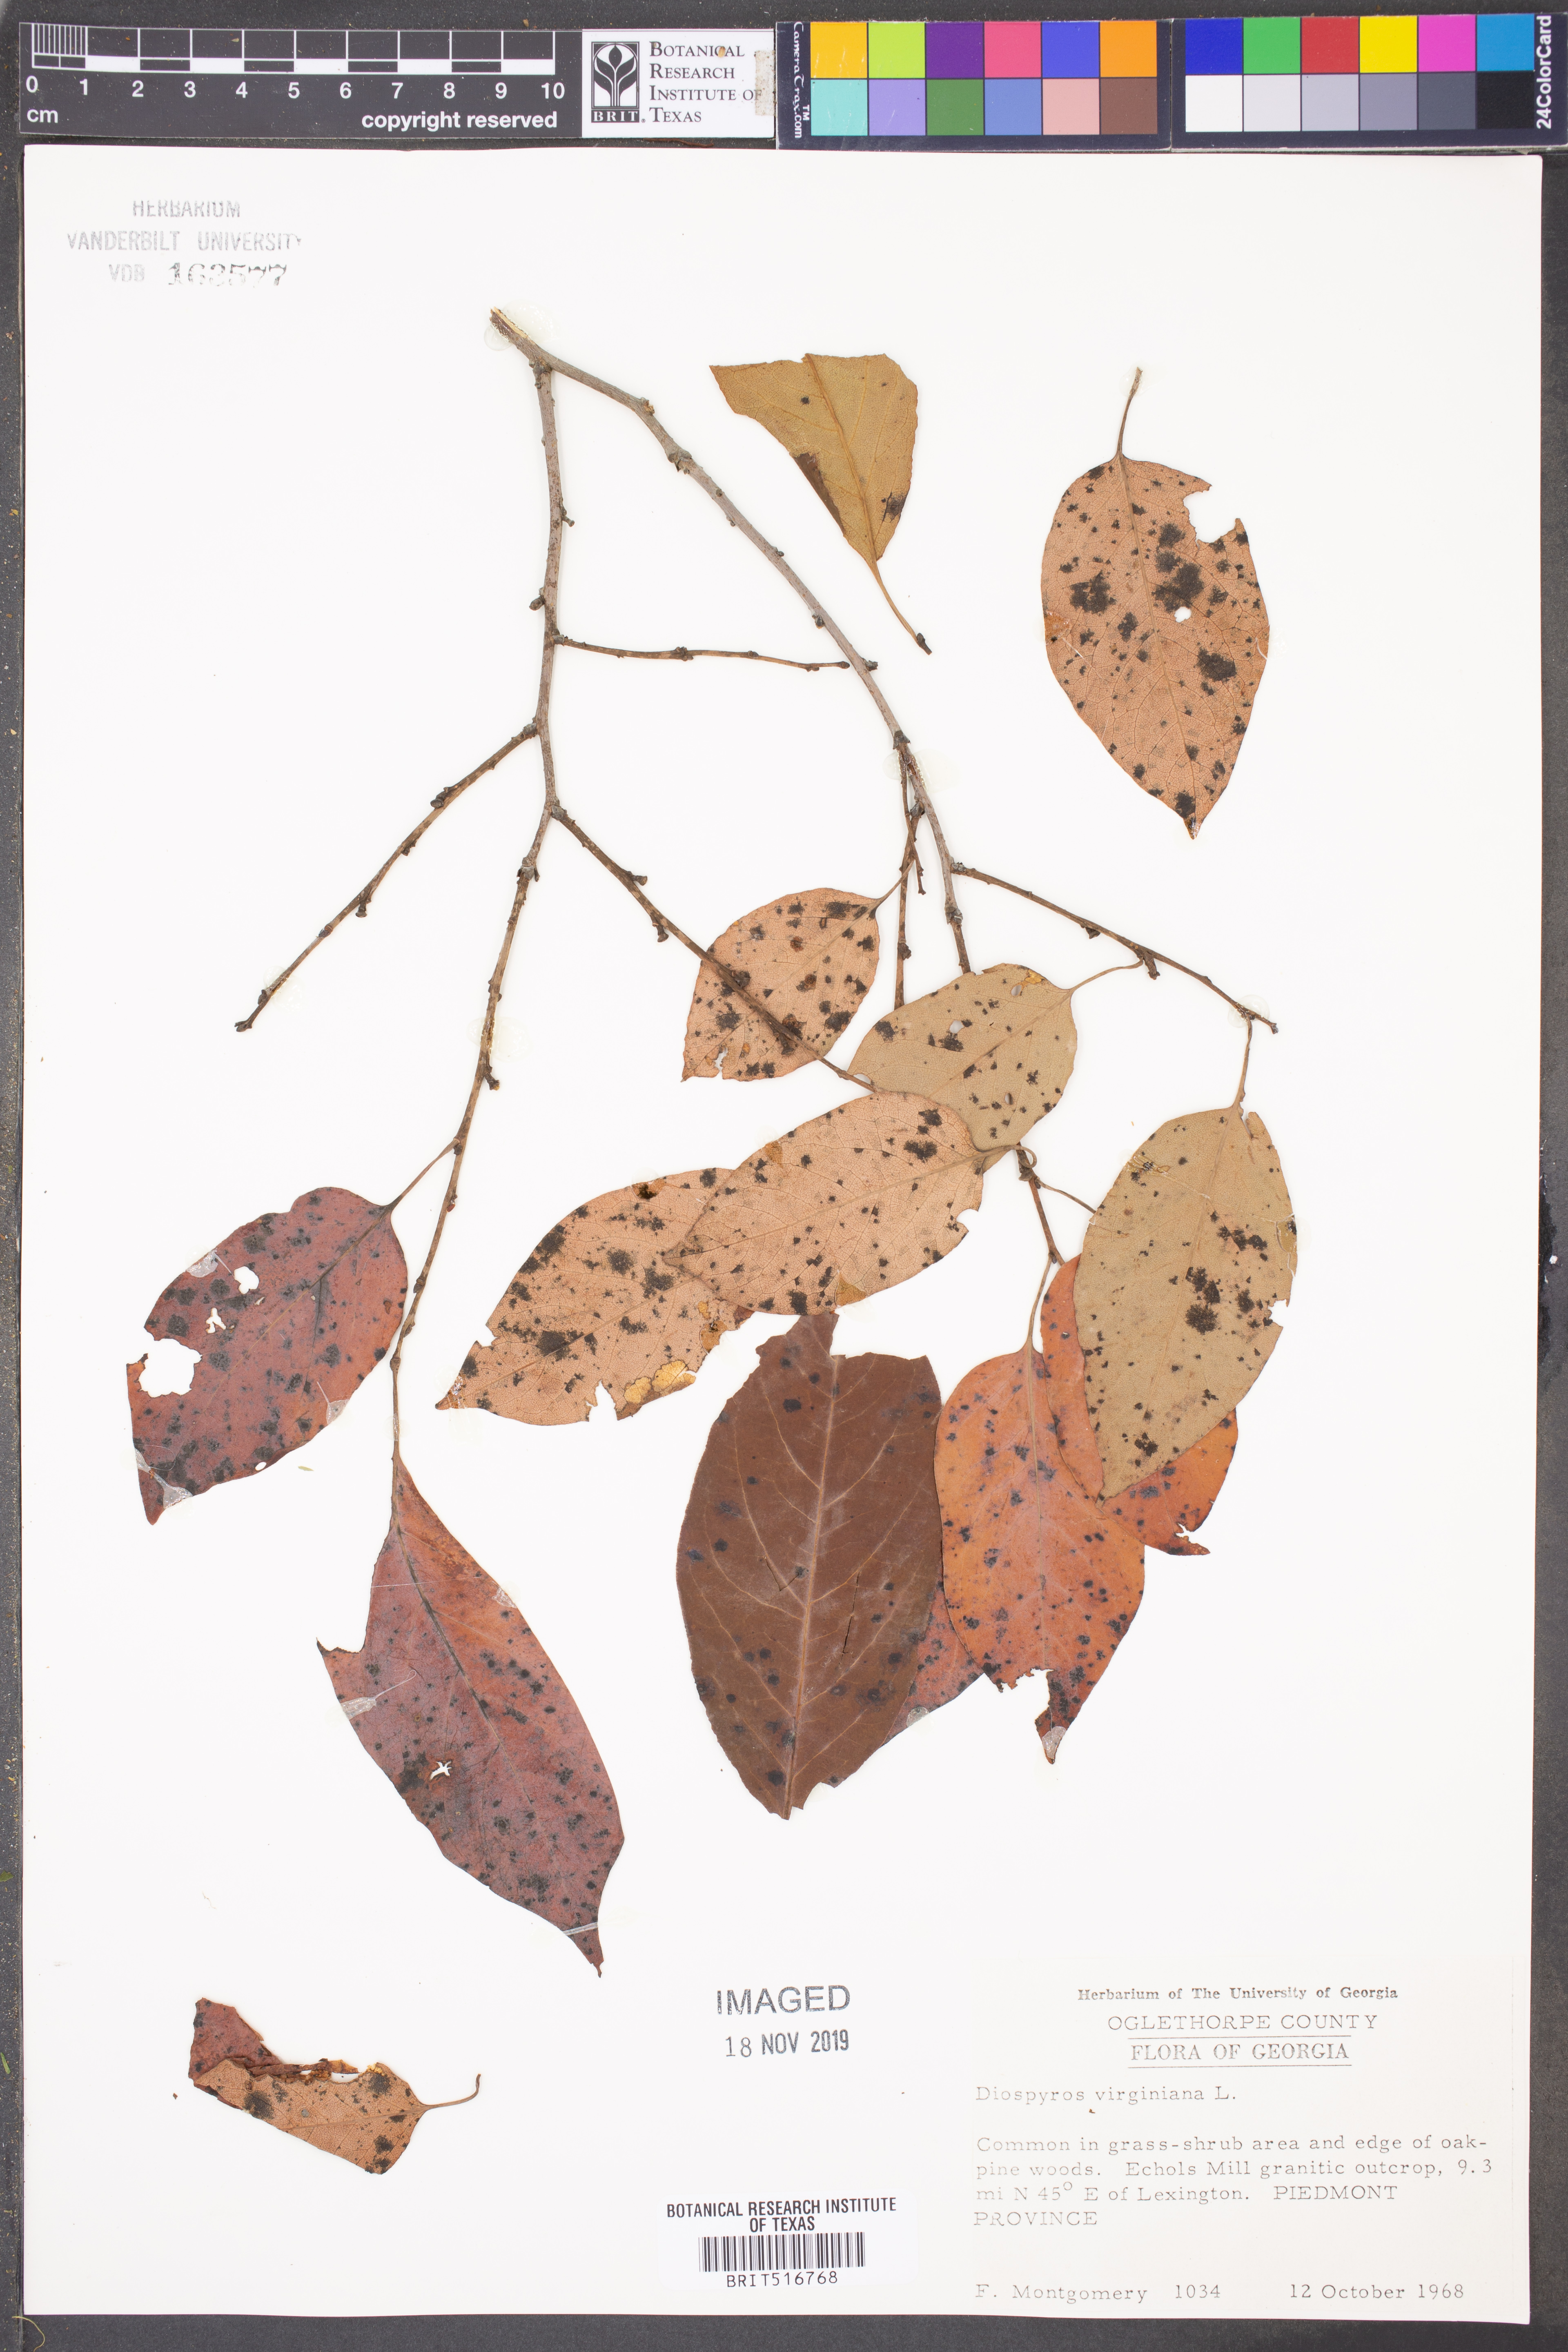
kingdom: Plantae
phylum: Tracheophyta
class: Magnoliopsida
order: Ericales
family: Ebenaceae
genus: Diospyros
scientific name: Diospyros virginiana
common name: Persimmon
